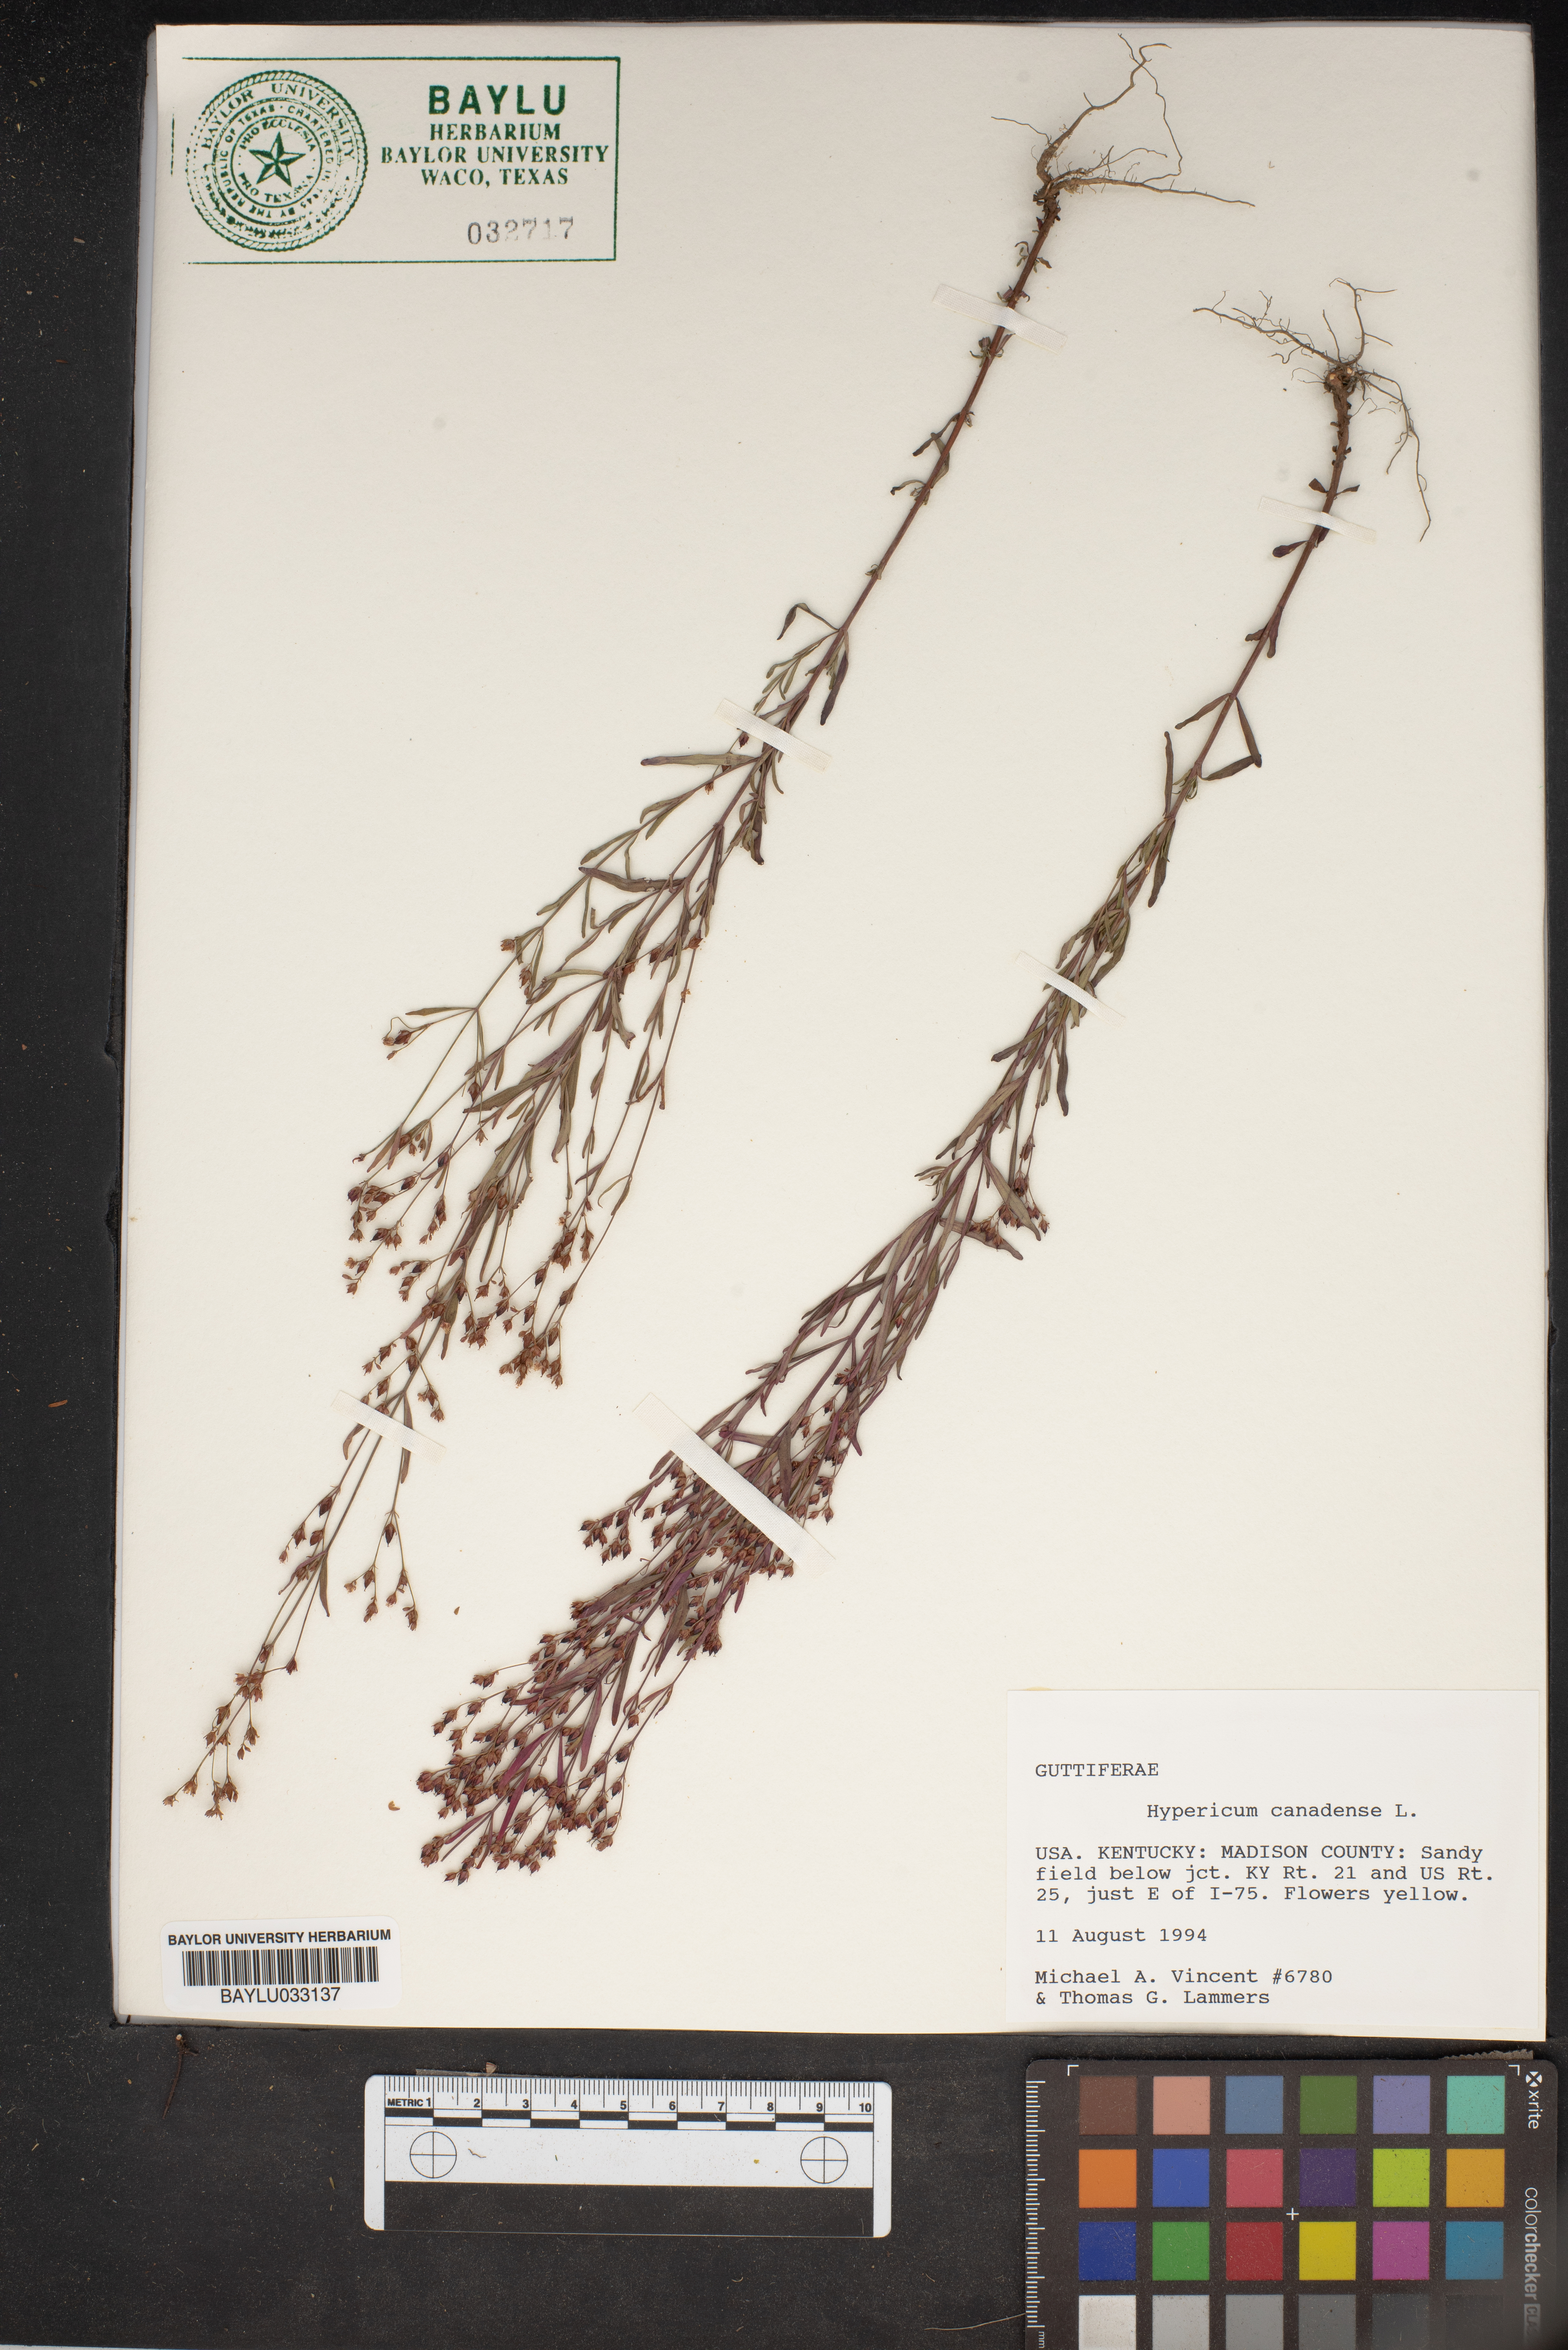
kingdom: Plantae
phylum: Tracheophyta
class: Magnoliopsida
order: Malpighiales
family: Hypericaceae
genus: Hypericum
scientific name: Hypericum canadense
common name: Irish st. john's-wort
